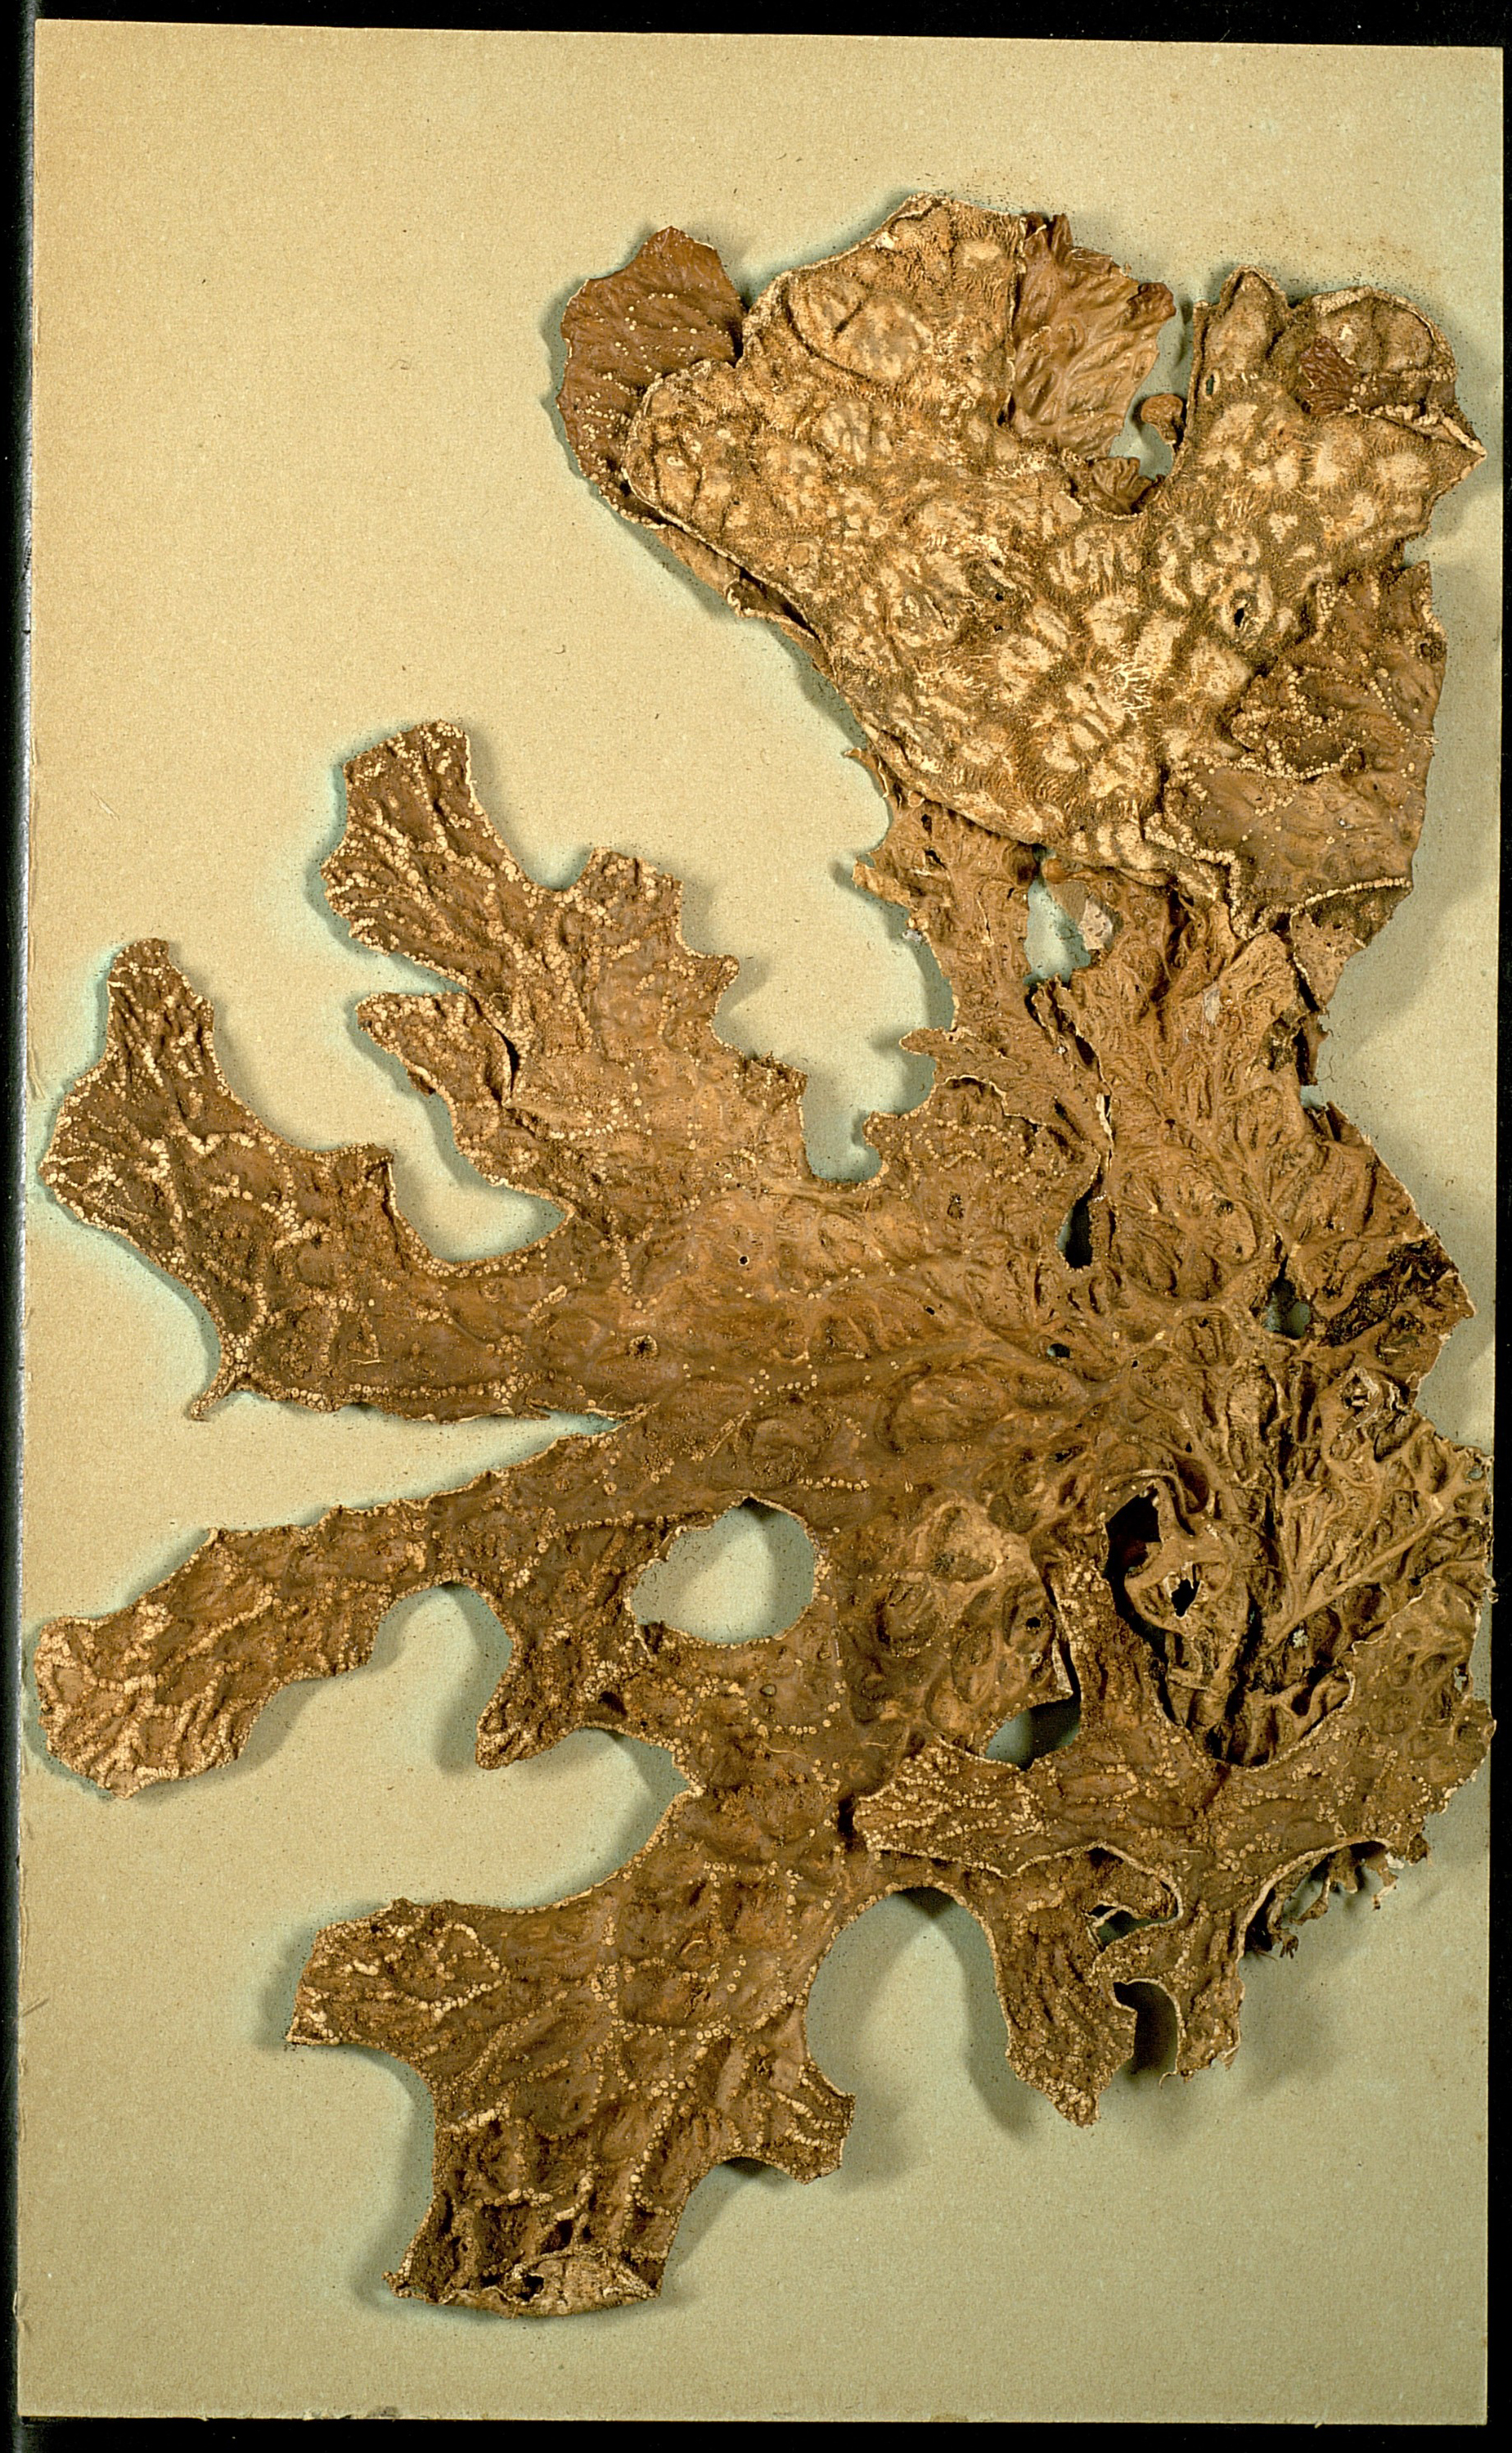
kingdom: Fungi
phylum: Ascomycota
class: Lecanoromycetes
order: Peltigerales
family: Lobariaceae
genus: Lobaria
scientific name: Lobaria pulmonaria
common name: Lungwort
